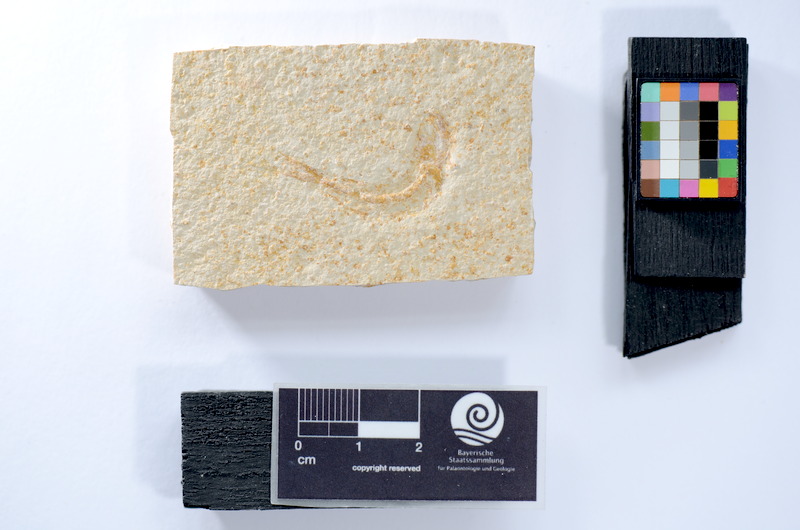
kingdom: Animalia
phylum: Chordata
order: Salmoniformes
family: Orthogonikleithridae
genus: Leptolepides
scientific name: Leptolepides
